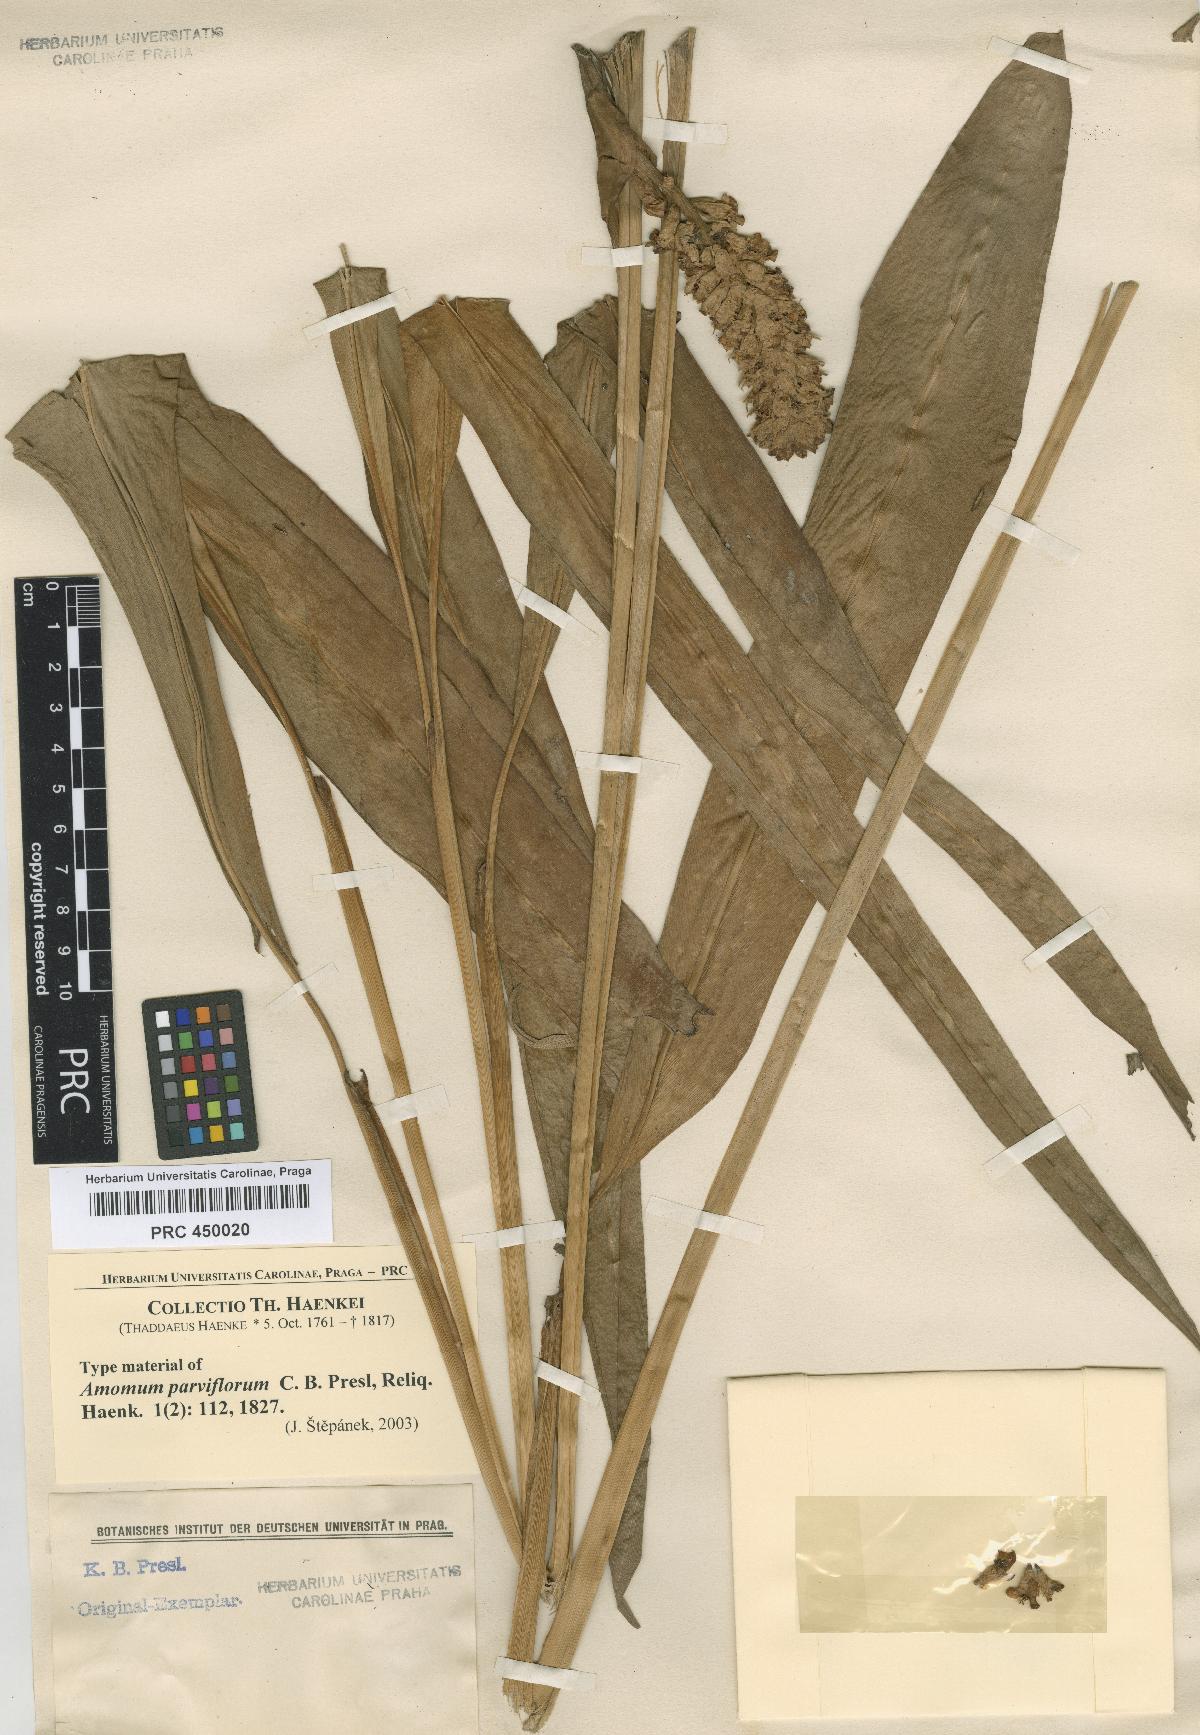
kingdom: Plantae
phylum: Tracheophyta
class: Liliopsida
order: Zingiberales
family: Zingiberaceae
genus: Plagiostachys
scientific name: Plagiostachys parviflora
